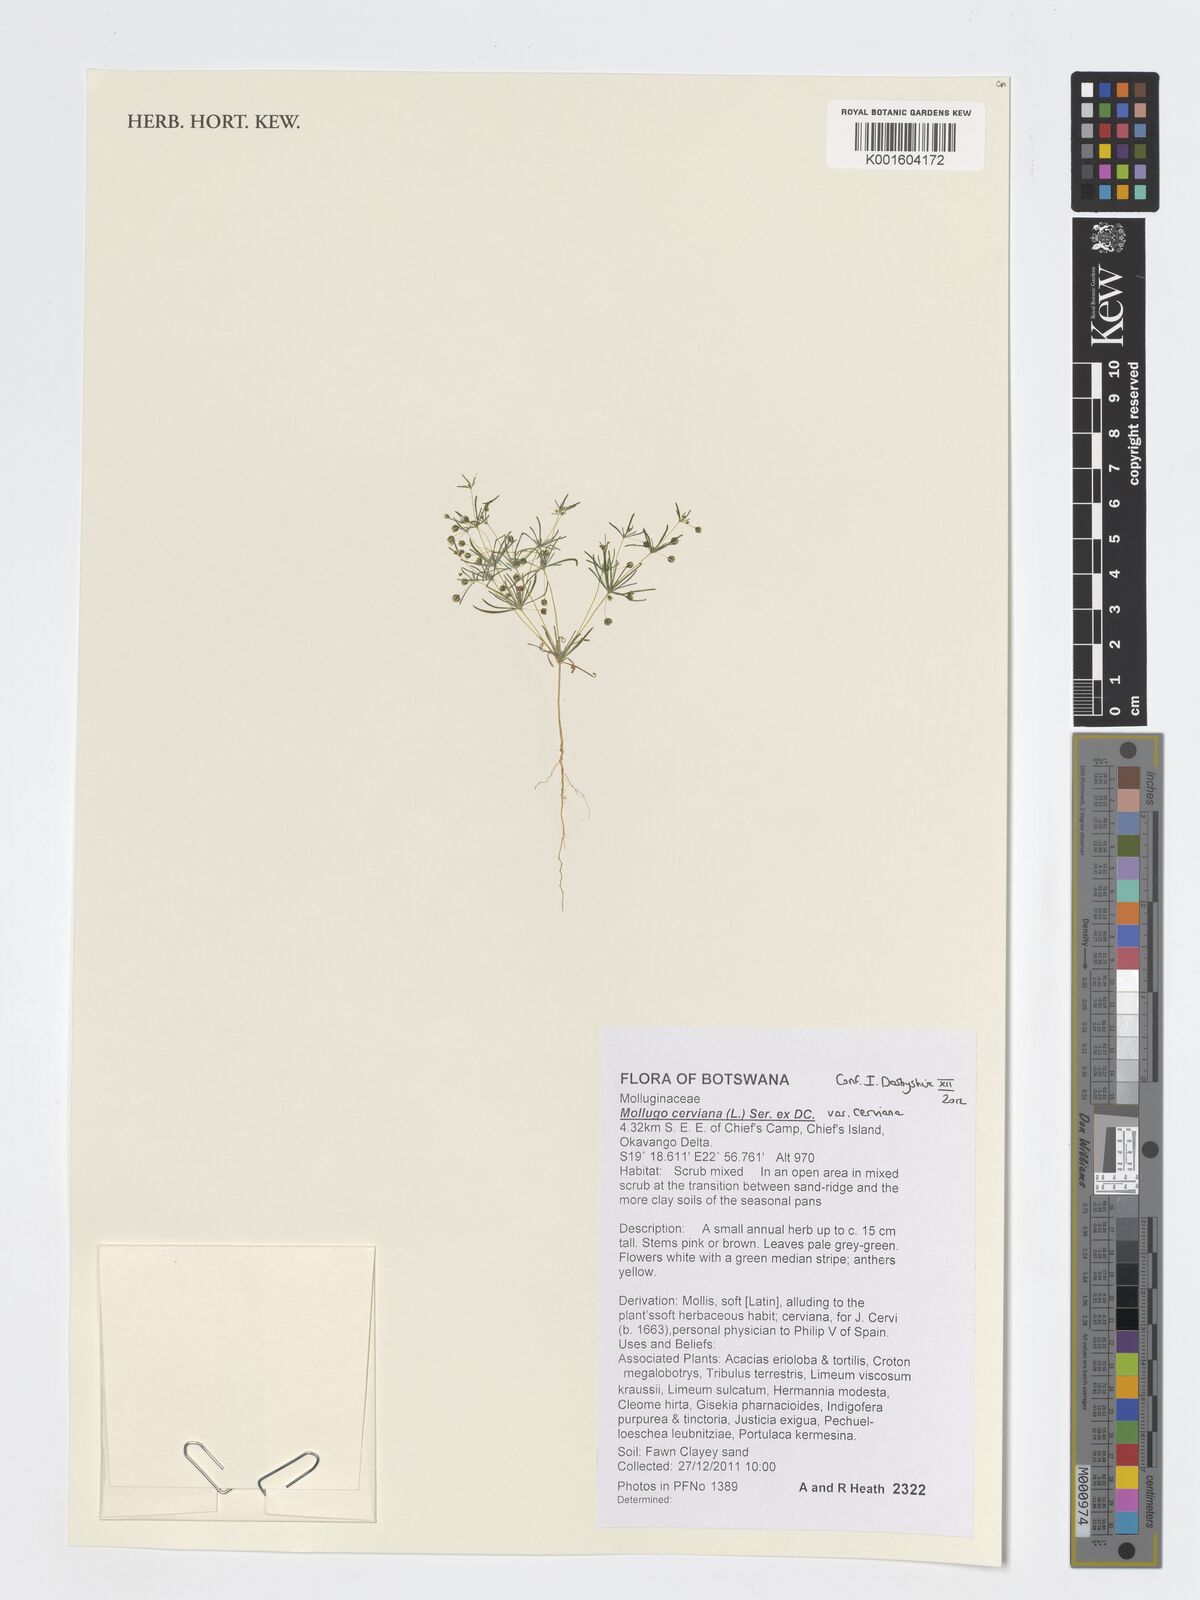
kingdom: Plantae
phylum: Tracheophyta
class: Magnoliopsida
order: Caryophyllales
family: Molluginaceae
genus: Hypertelis
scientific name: Hypertelis cerviana
